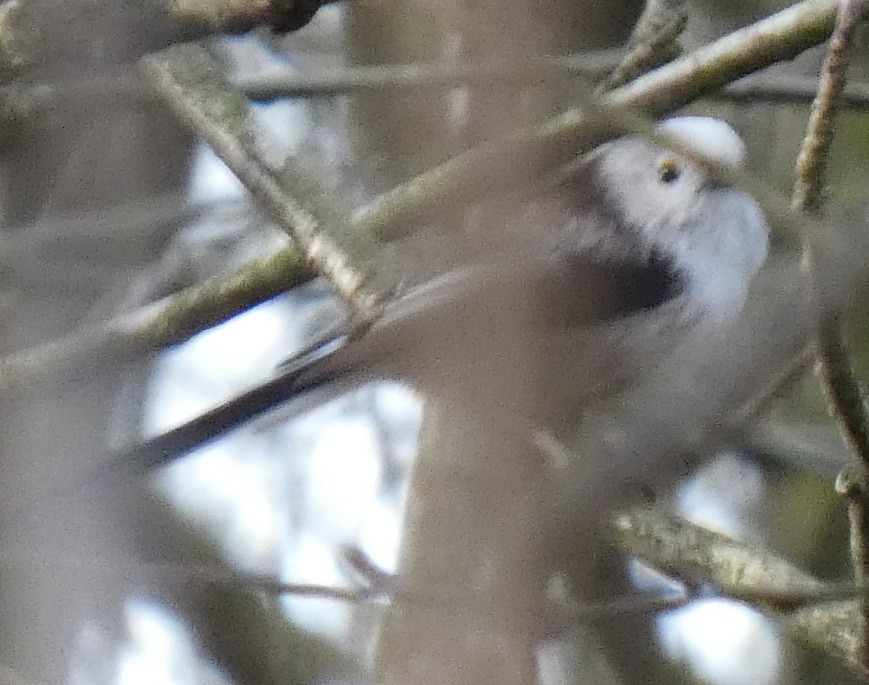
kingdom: Animalia
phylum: Chordata
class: Aves
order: Passeriformes
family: Aegithalidae
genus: Aegithalos
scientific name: Aegithalos caudatus
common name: Halemejse
